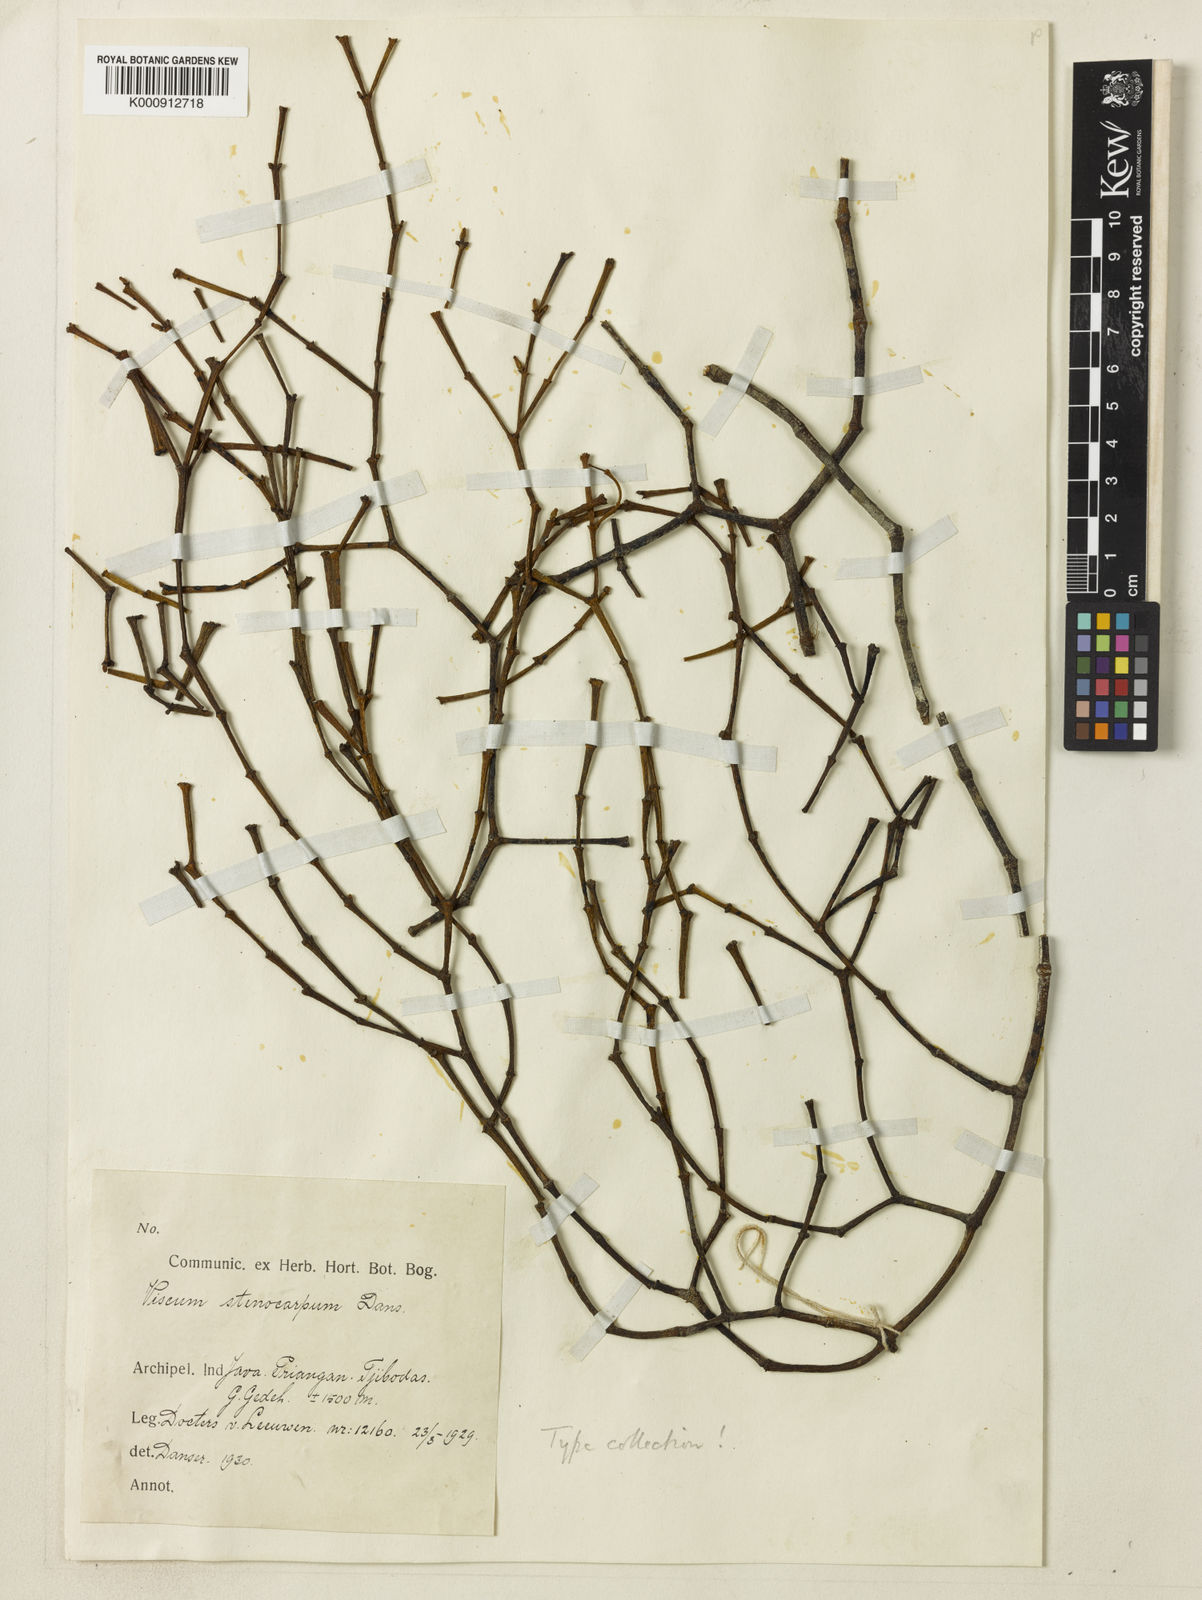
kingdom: Plantae
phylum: Tracheophyta
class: Magnoliopsida
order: Santalales
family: Viscaceae
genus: Viscum
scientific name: Viscum stenocarpum
